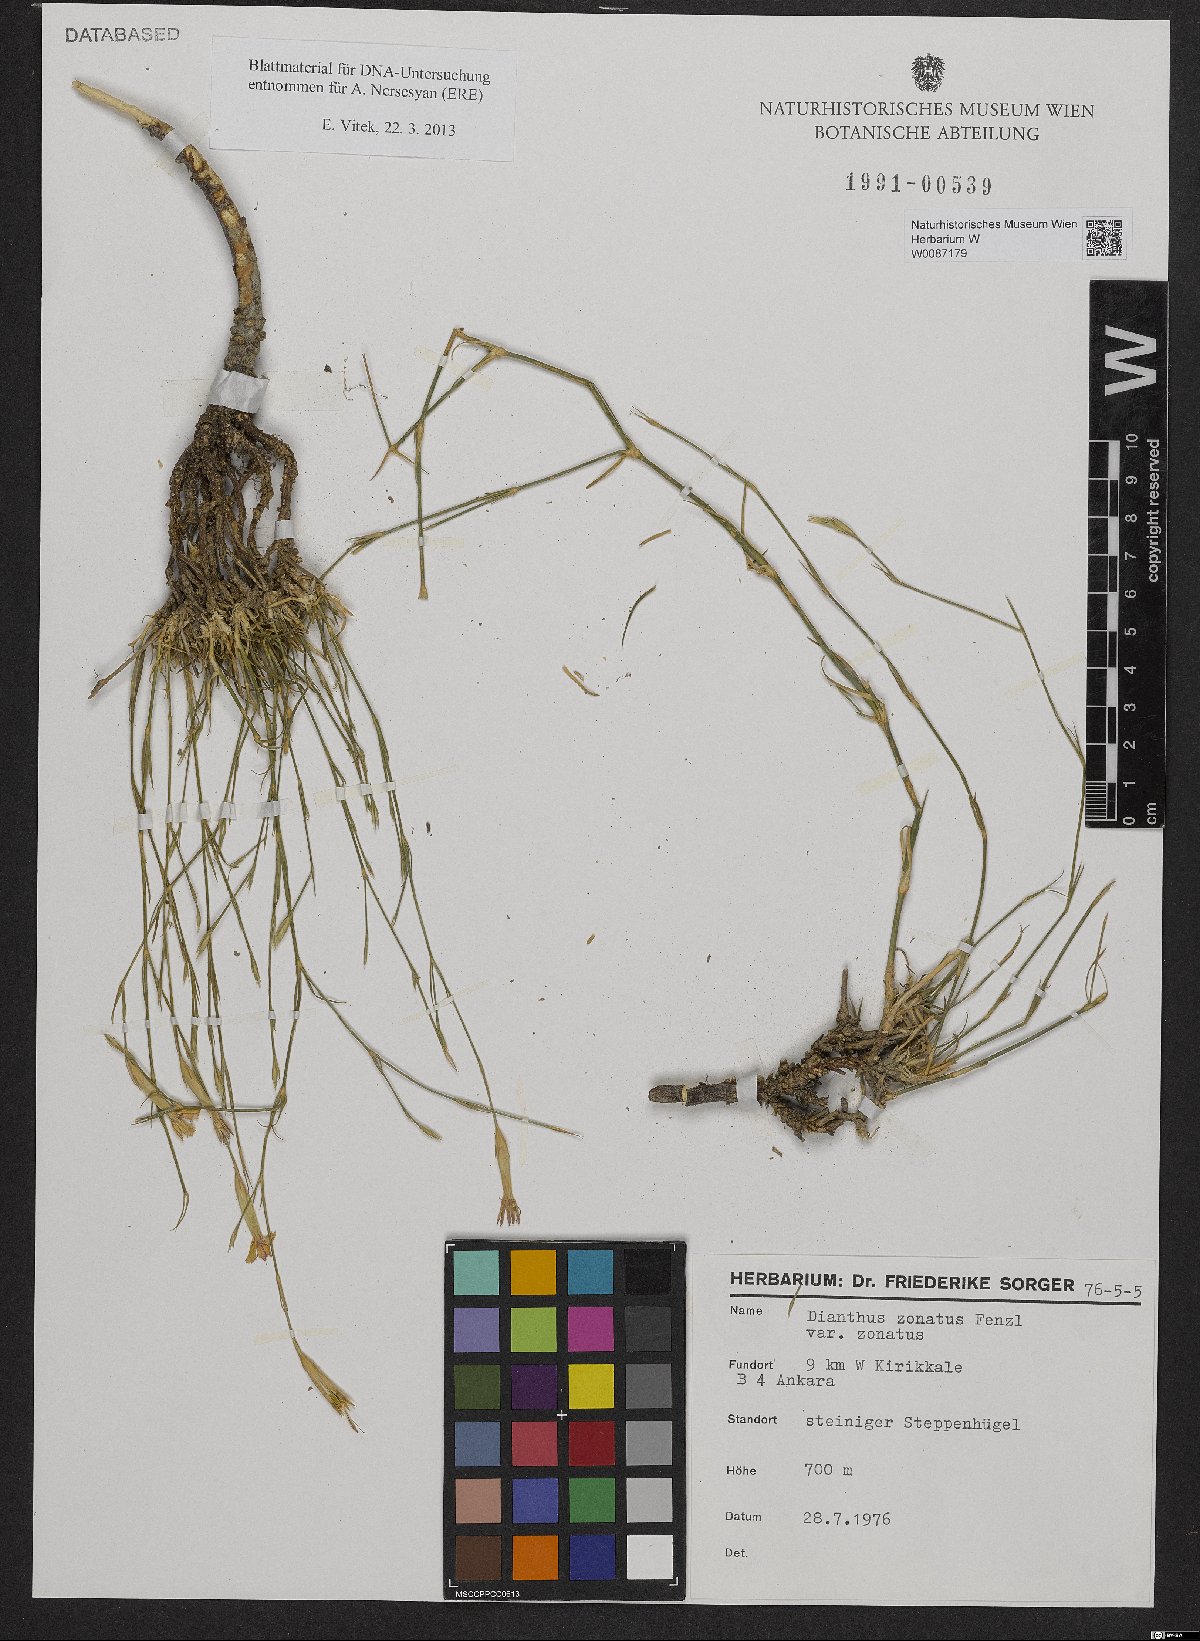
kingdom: Plantae
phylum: Tracheophyta
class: Magnoliopsida
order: Caryophyllales
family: Caryophyllaceae
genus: Dianthus
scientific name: Dianthus zonatus
